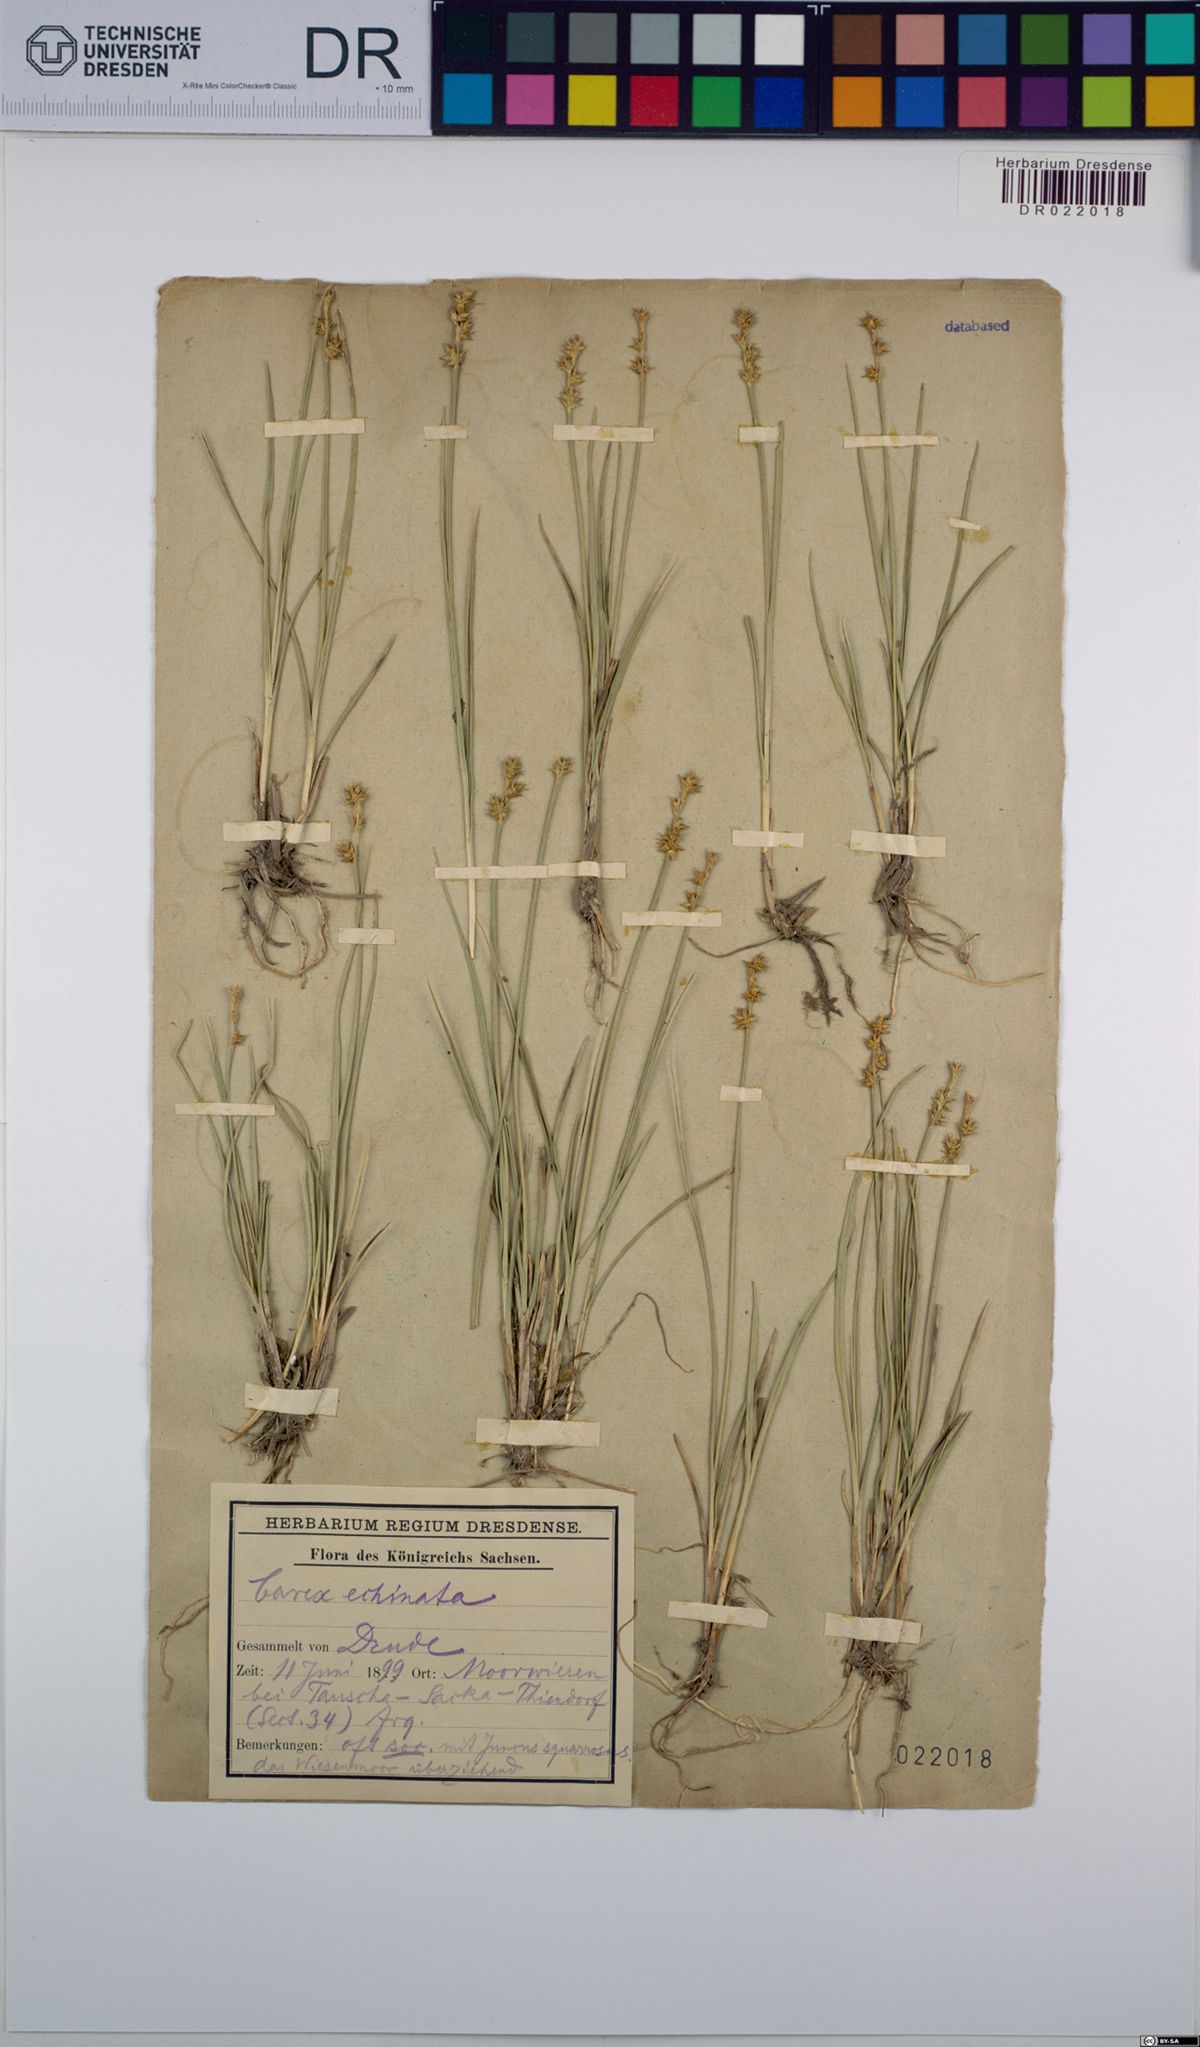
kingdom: Plantae
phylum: Tracheophyta
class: Liliopsida
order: Poales
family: Cyperaceae
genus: Carex
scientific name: Carex echinata
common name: Star sedge
